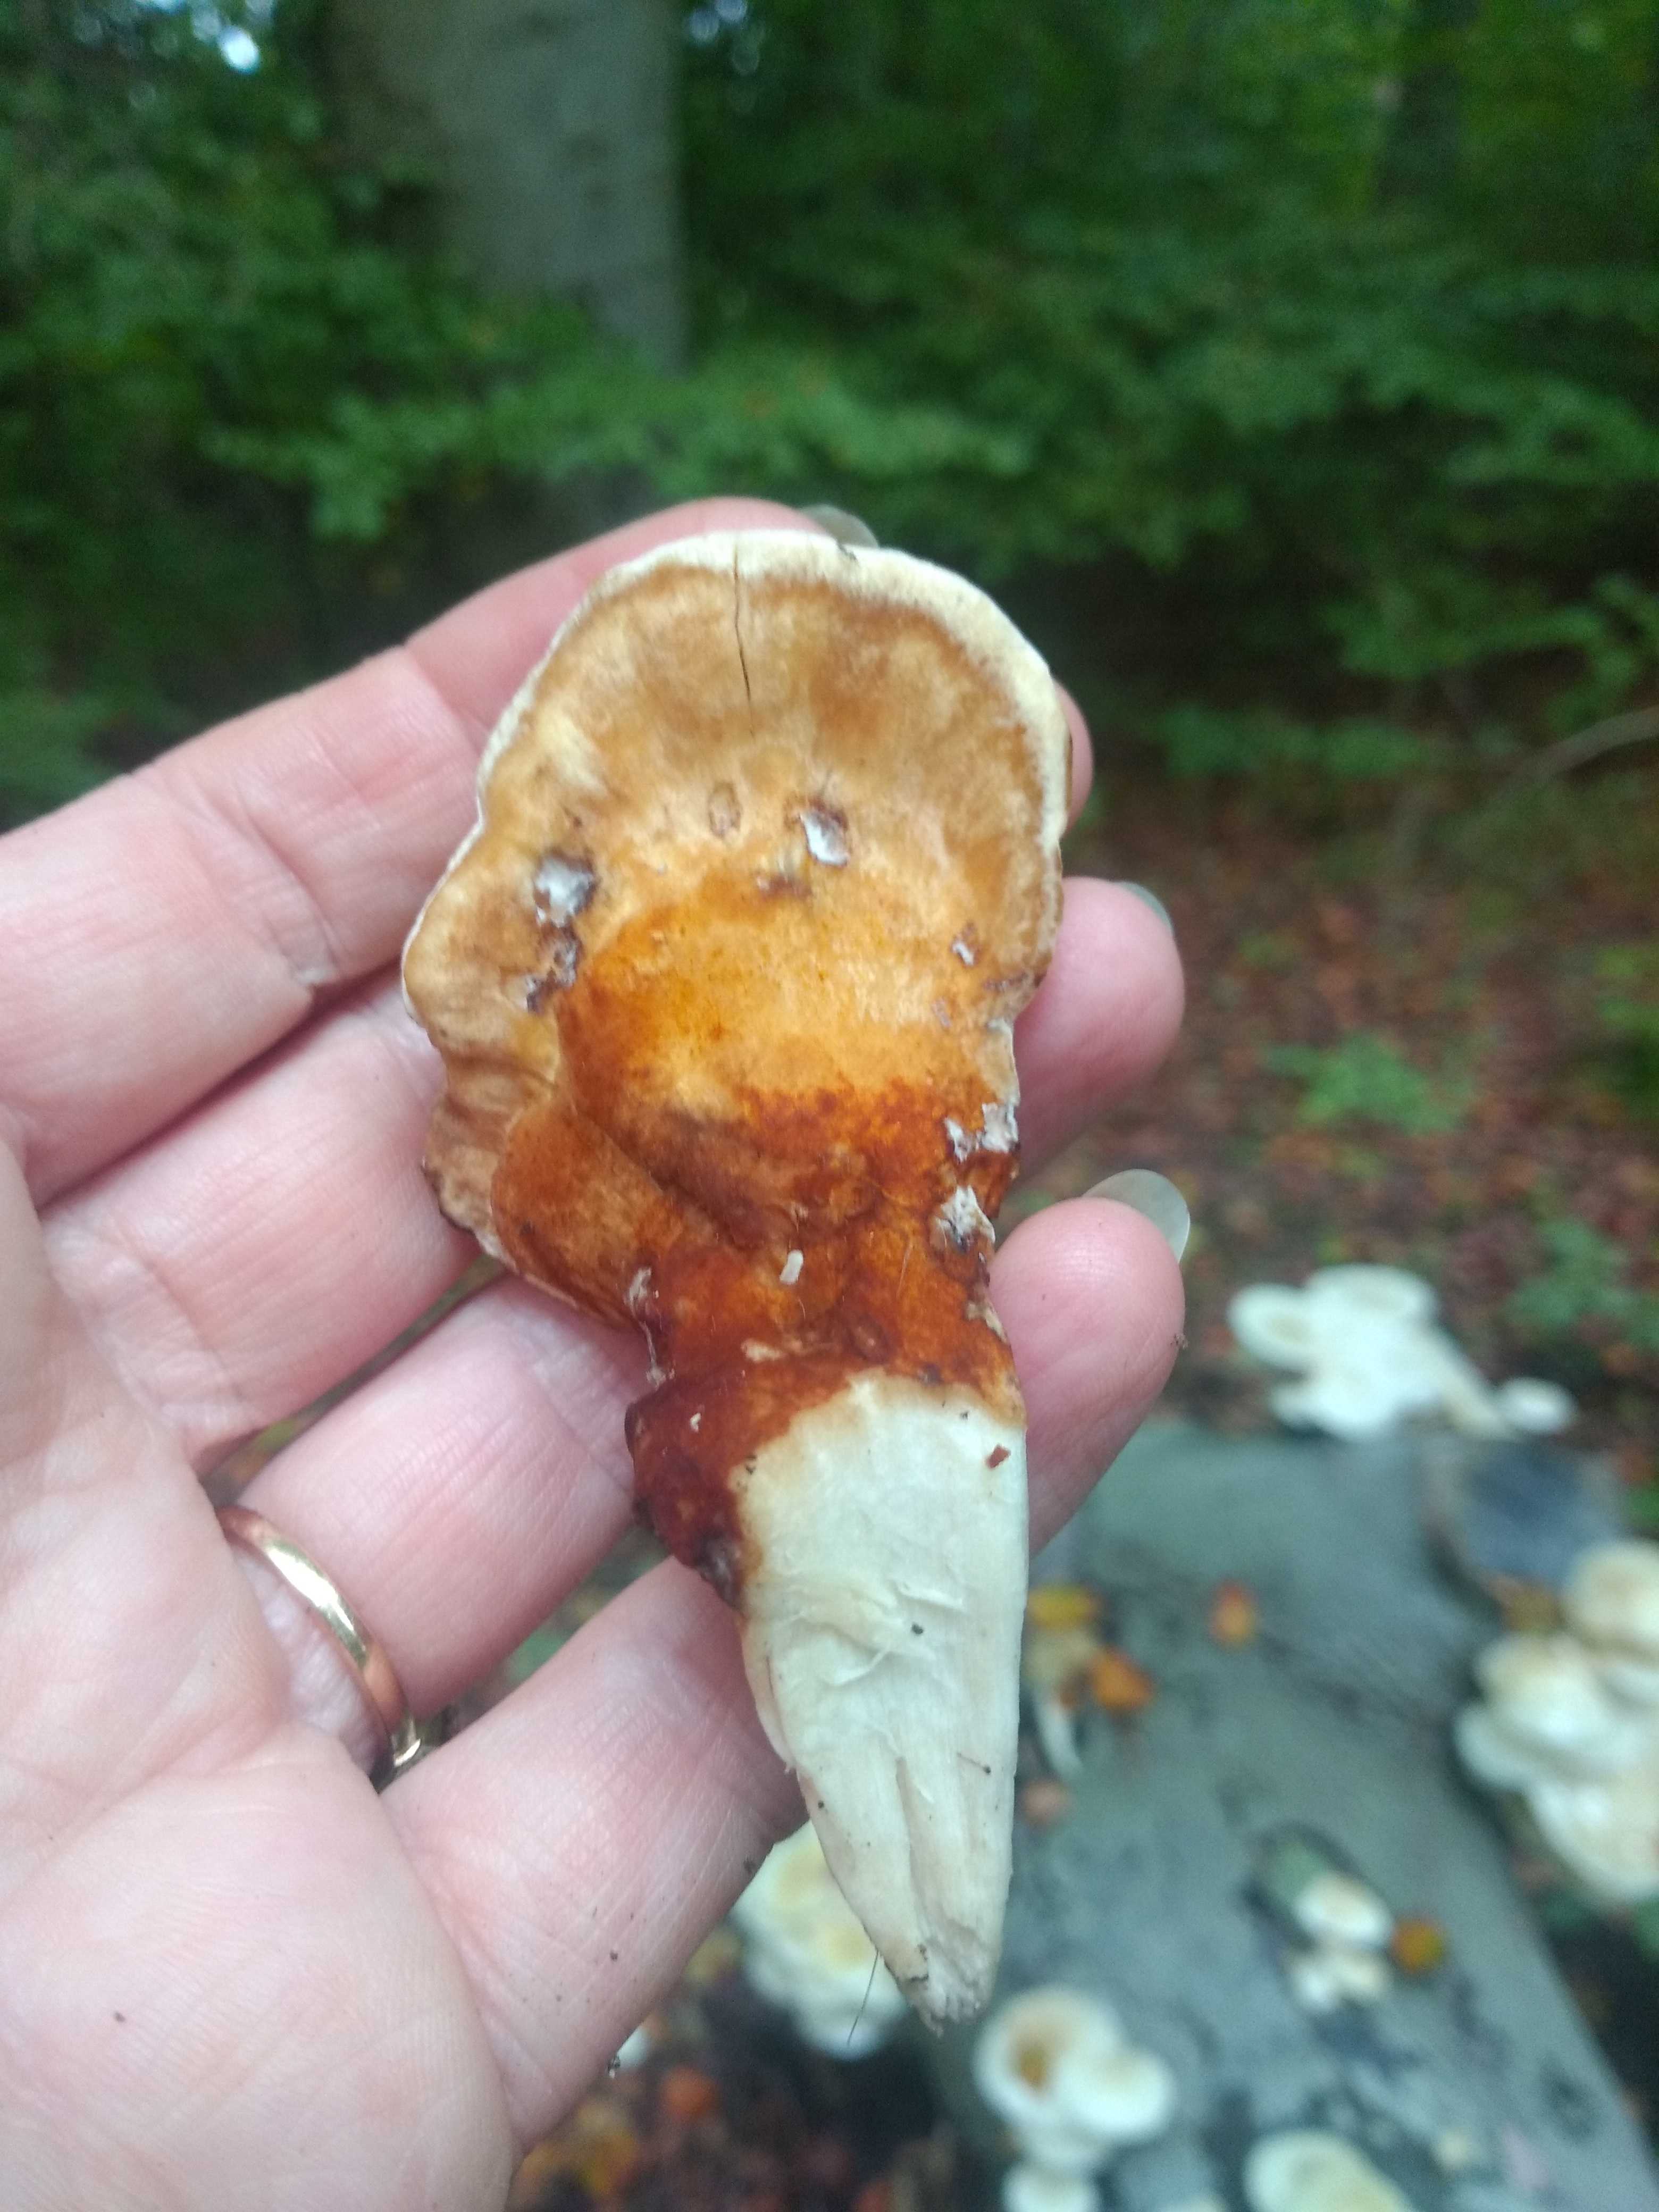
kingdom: Fungi
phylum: Basidiomycota
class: Agaricomycetes
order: Polyporales
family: Meripilaceae
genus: Meripilus
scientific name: Meripilus giganteus
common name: kæmpeporesvamp
